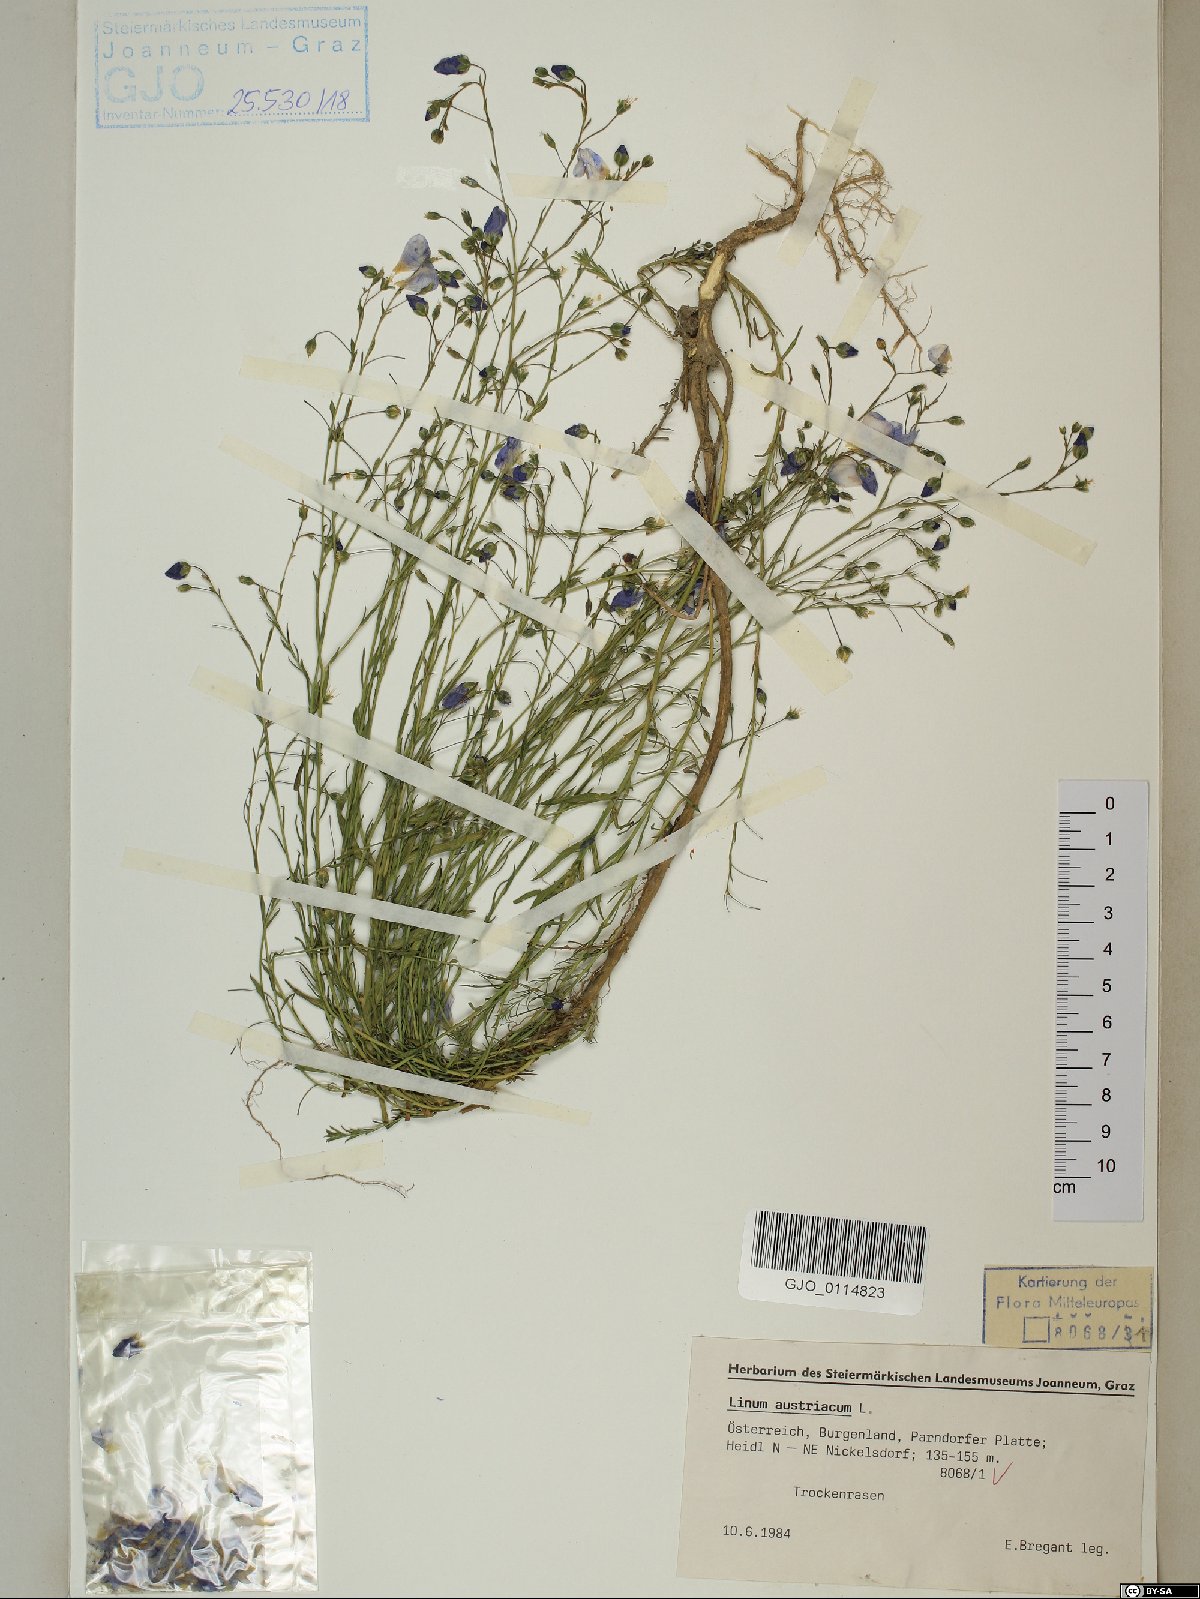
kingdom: Plantae
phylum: Tracheophyta
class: Magnoliopsida
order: Malpighiales
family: Linaceae
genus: Linum
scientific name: Linum austriacum
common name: Austrian flax
